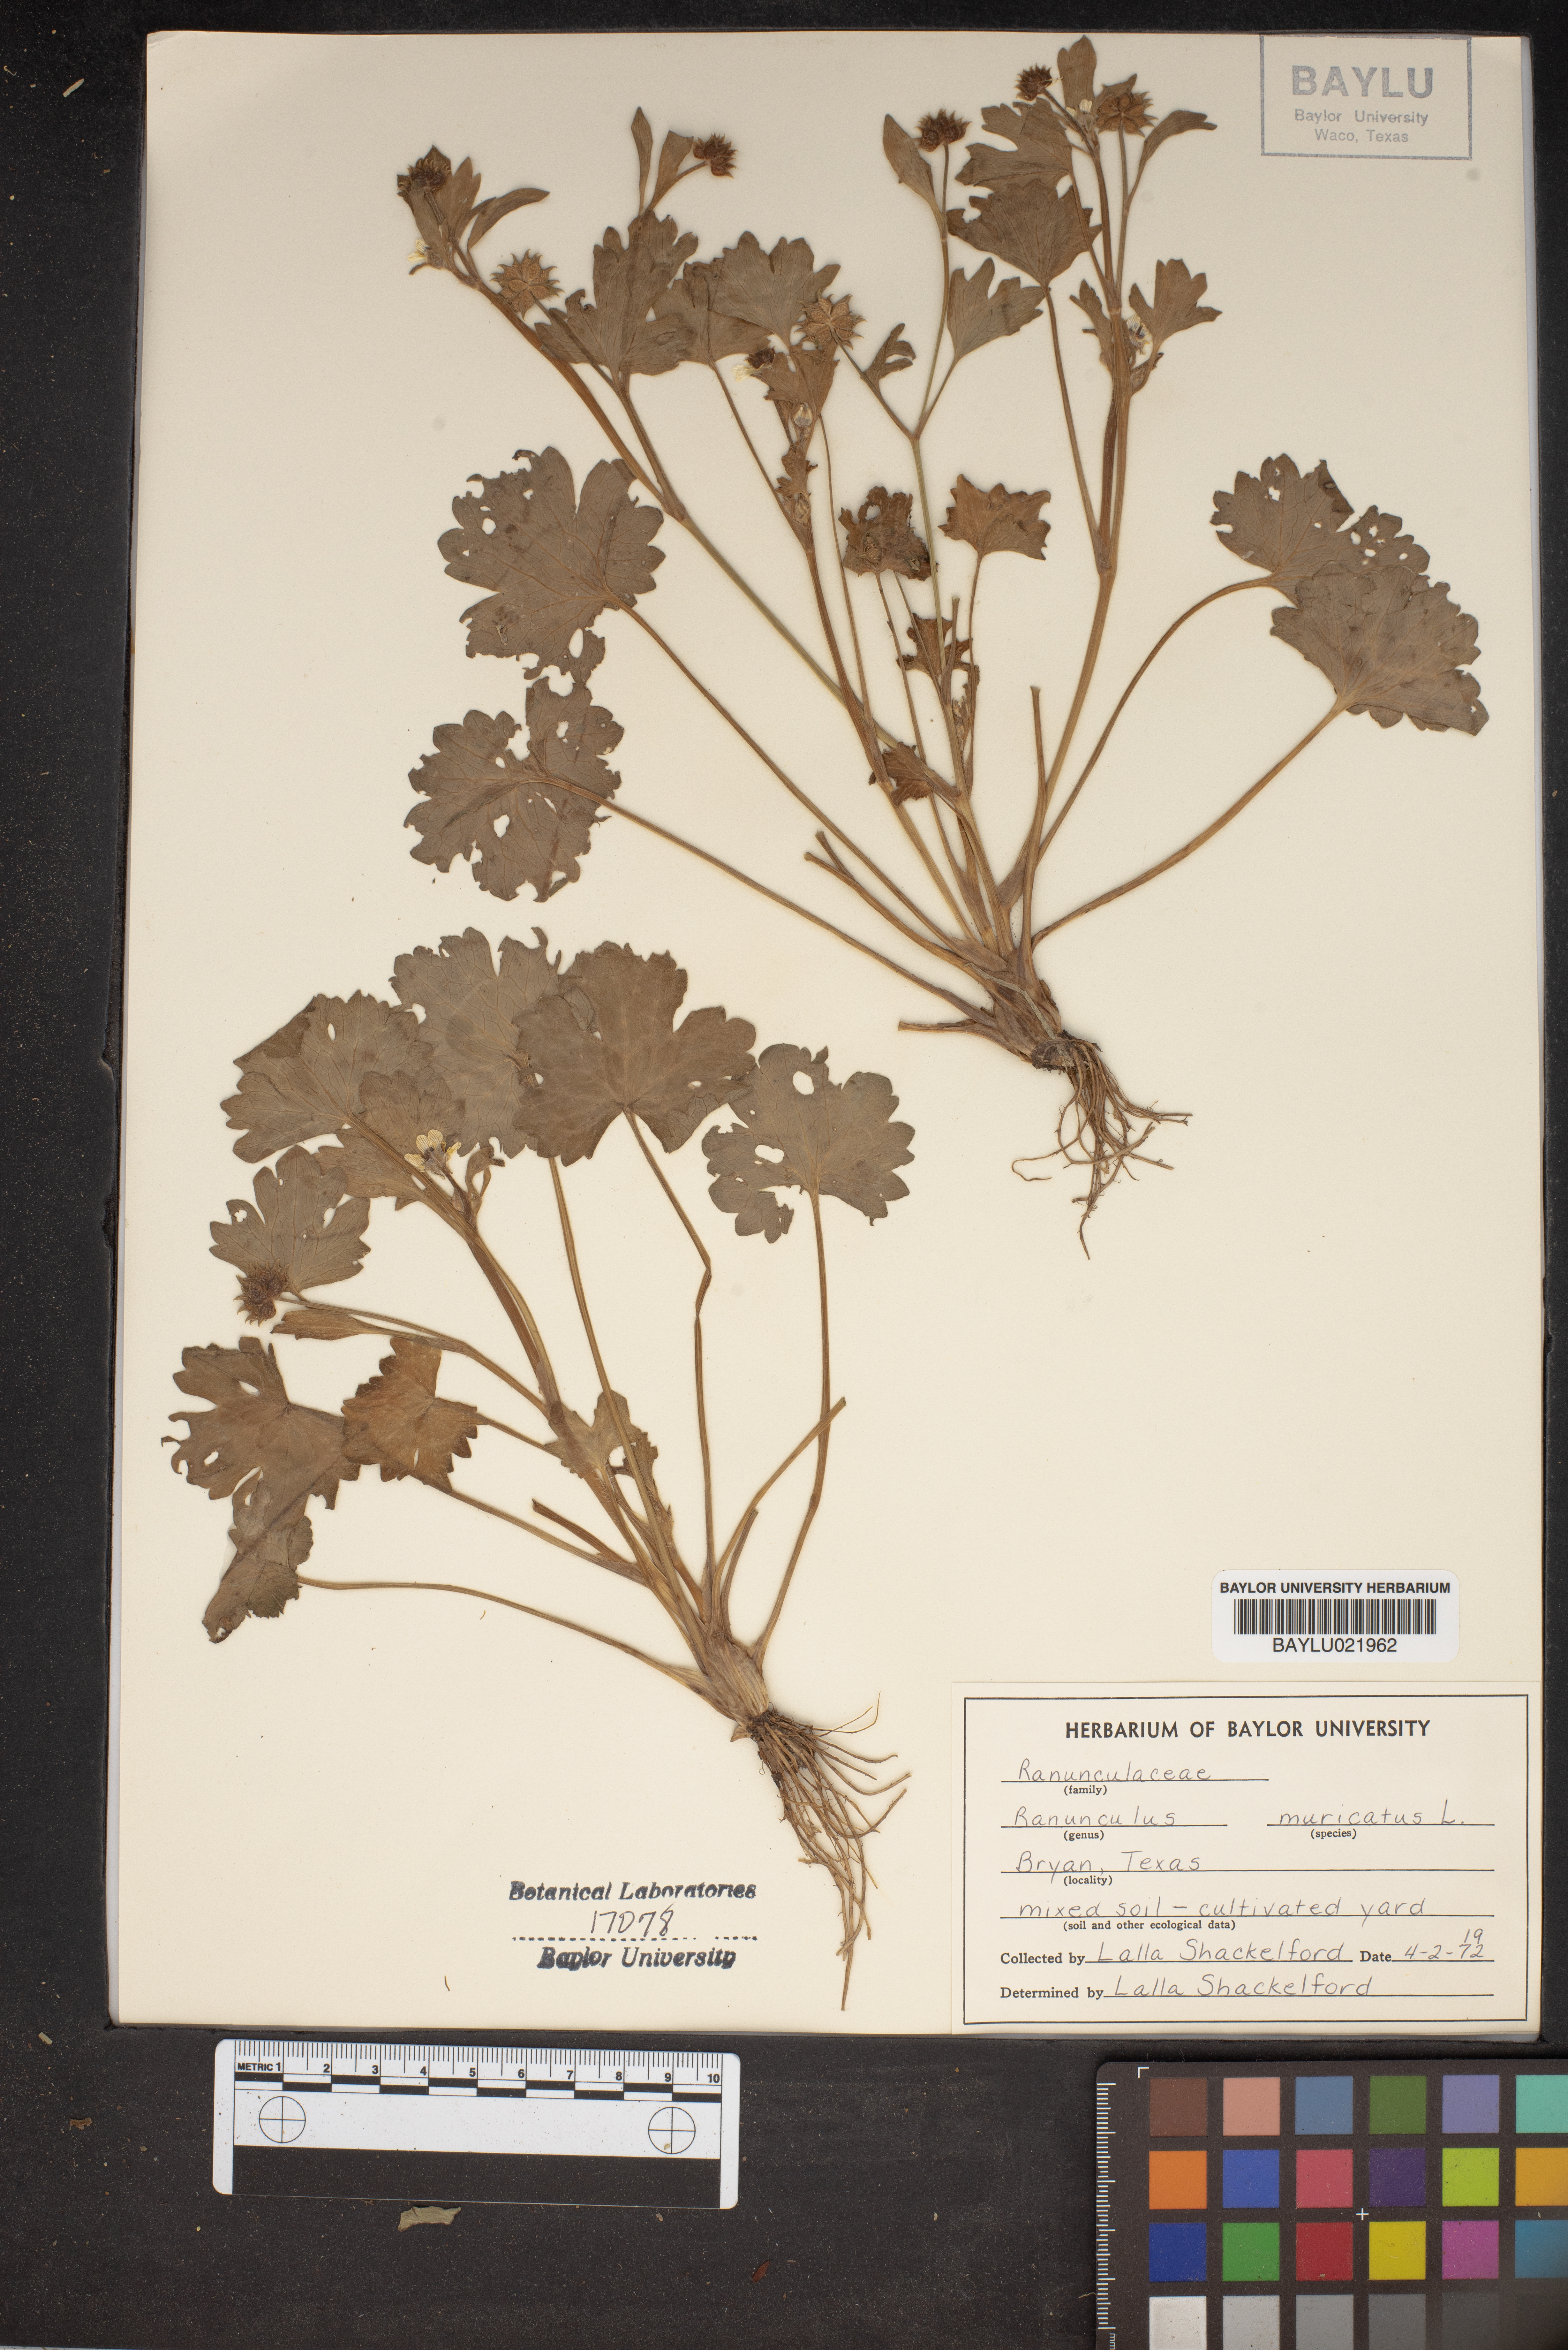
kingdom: Plantae
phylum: Tracheophyta
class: Magnoliopsida
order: Ranunculales
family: Ranunculaceae
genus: Ranunculus
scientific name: Ranunculus muricatus
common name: Rough-fruited buttercup
